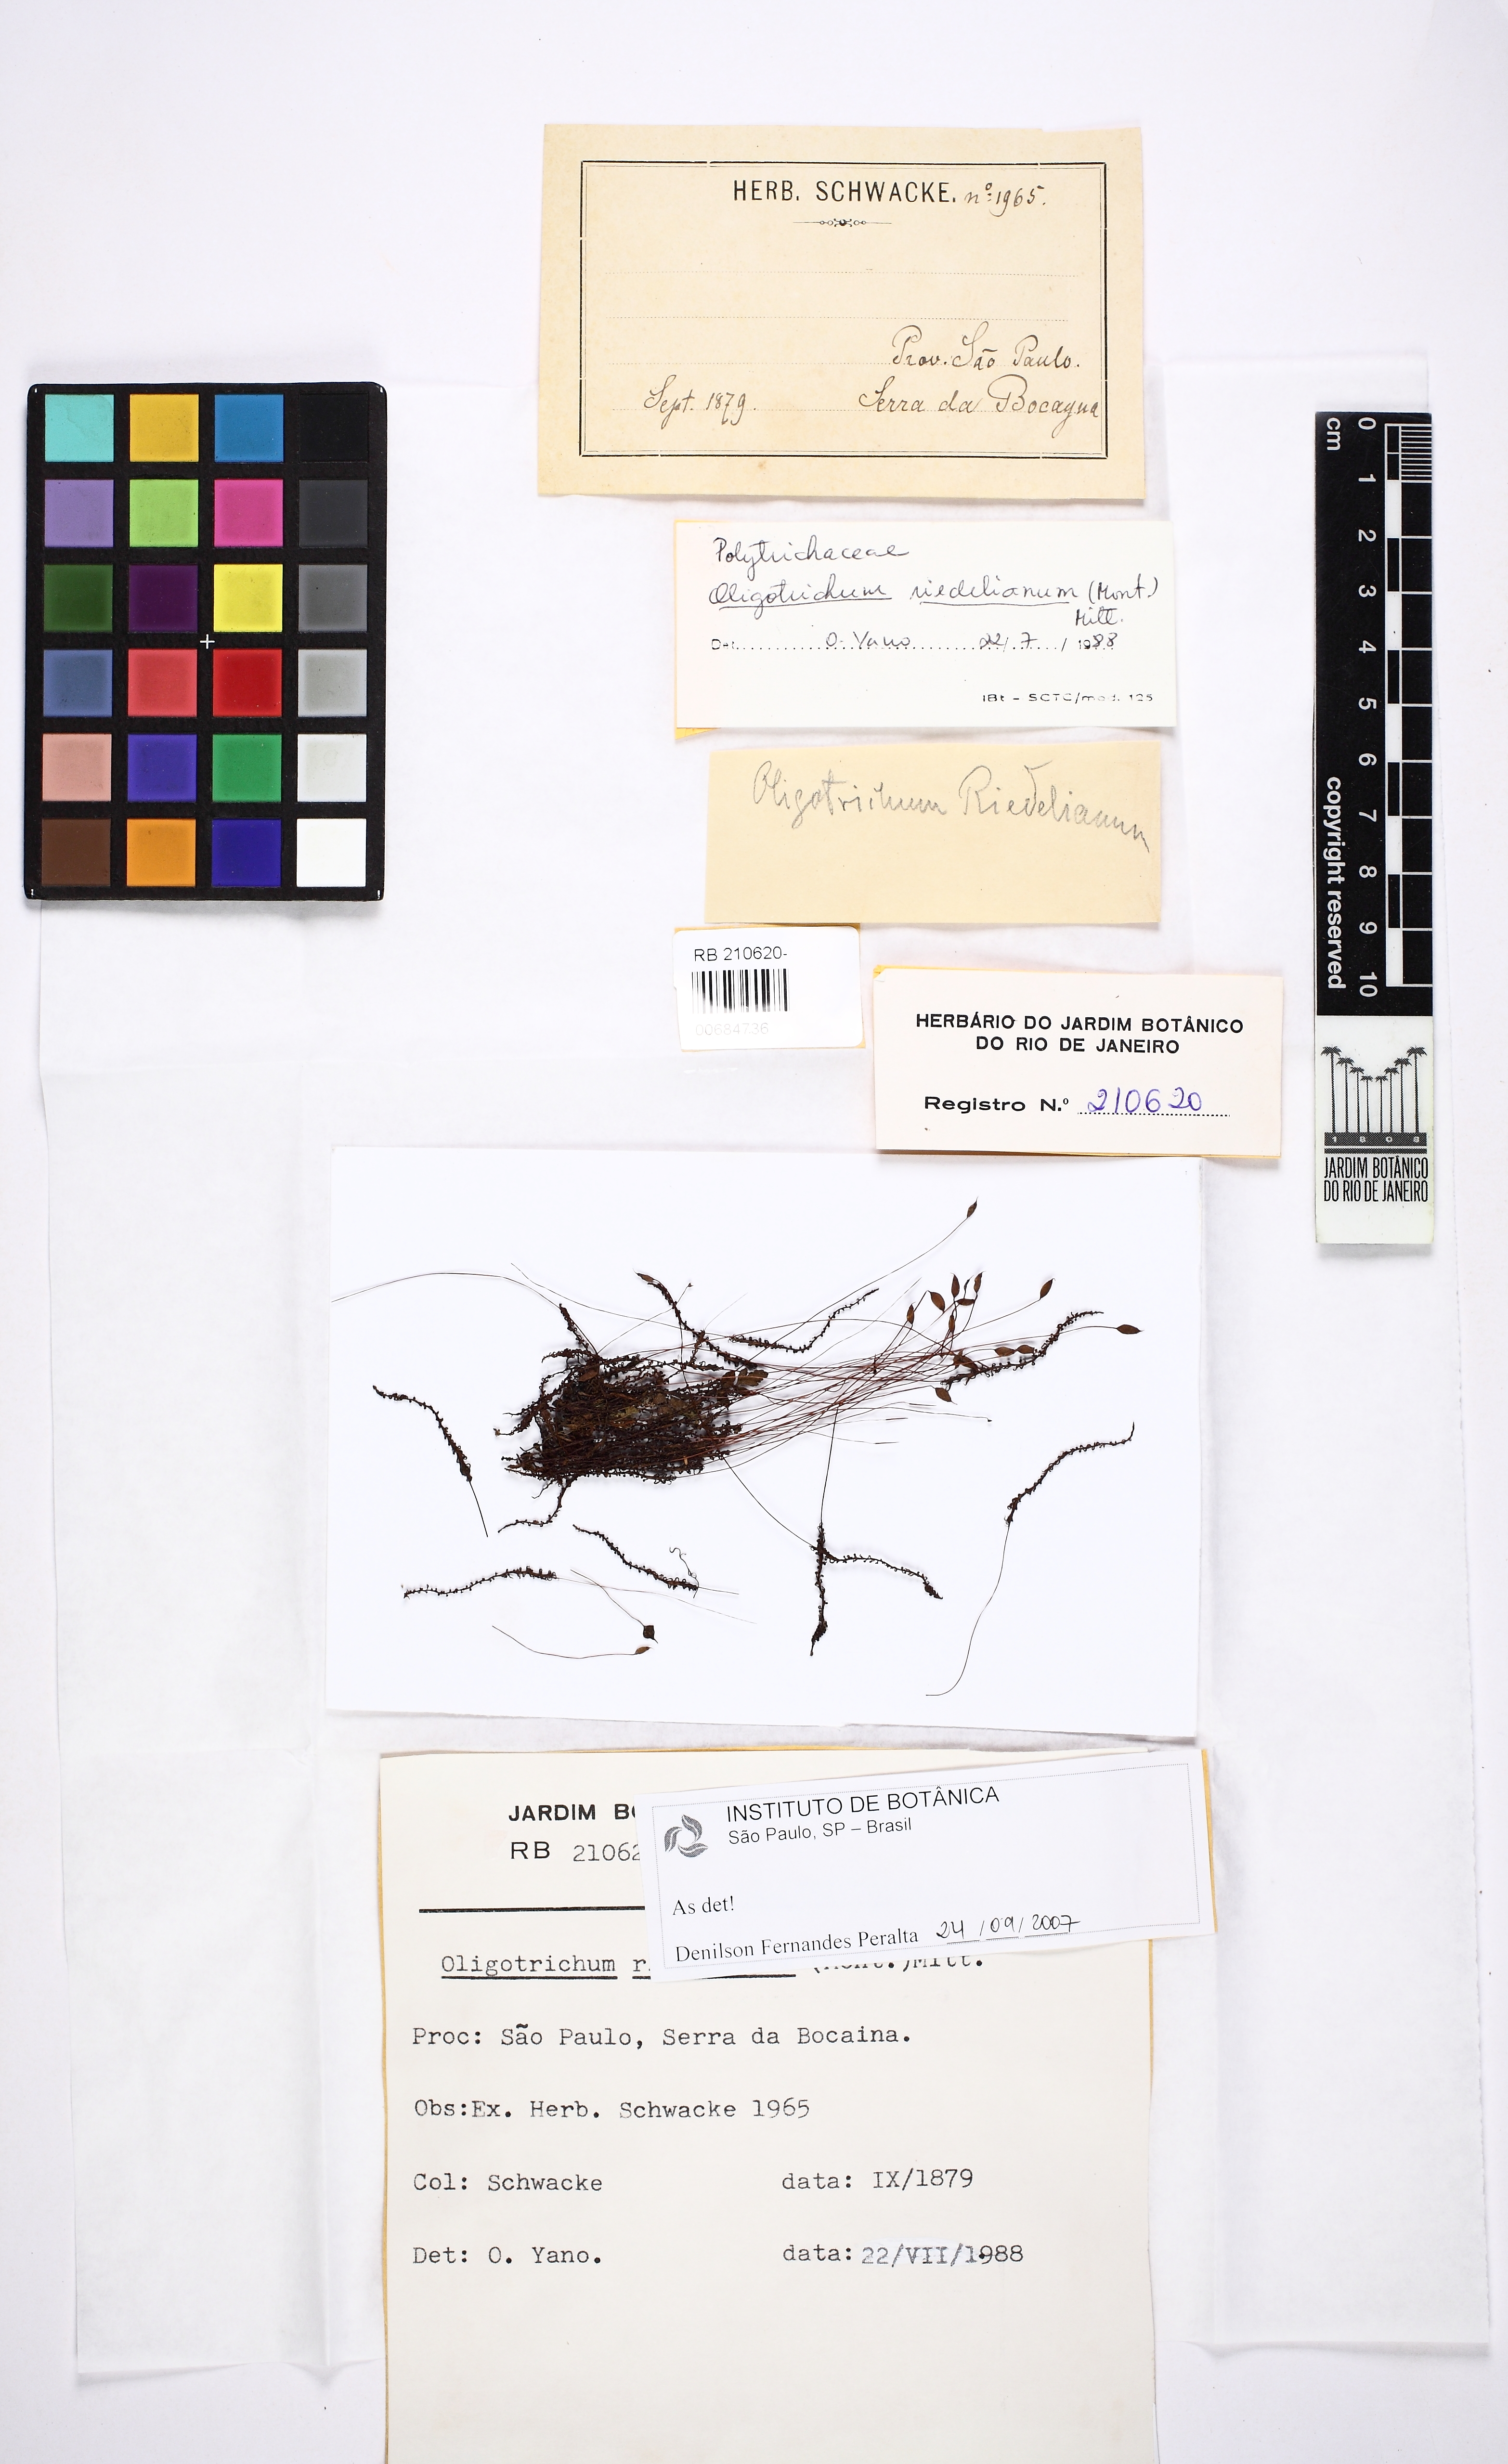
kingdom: Plantae
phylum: Bryophyta
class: Polytrichopsida
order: Polytrichales
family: Polytrichaceae
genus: Itatiella
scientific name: Itatiella riedeliana
